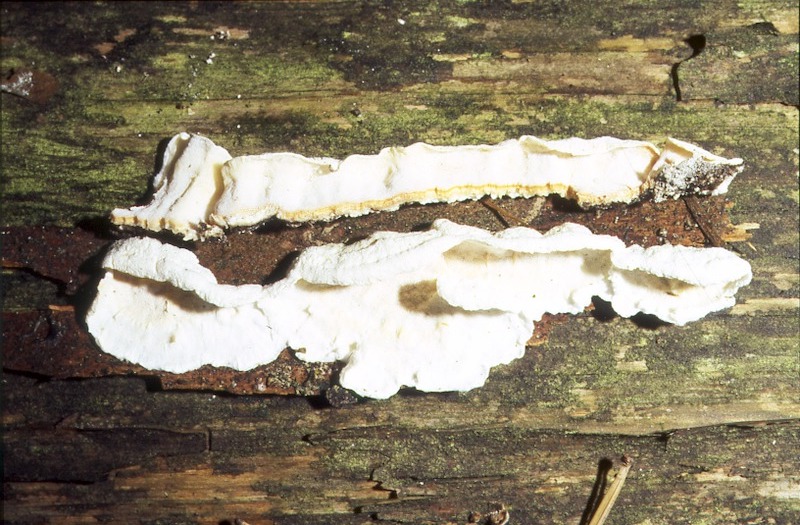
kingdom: Plantae
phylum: Tracheophyta
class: Pinopsida
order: Pinales
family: Pinaceae
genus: Pinus
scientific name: Pinus sylvestris
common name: Scots pine
